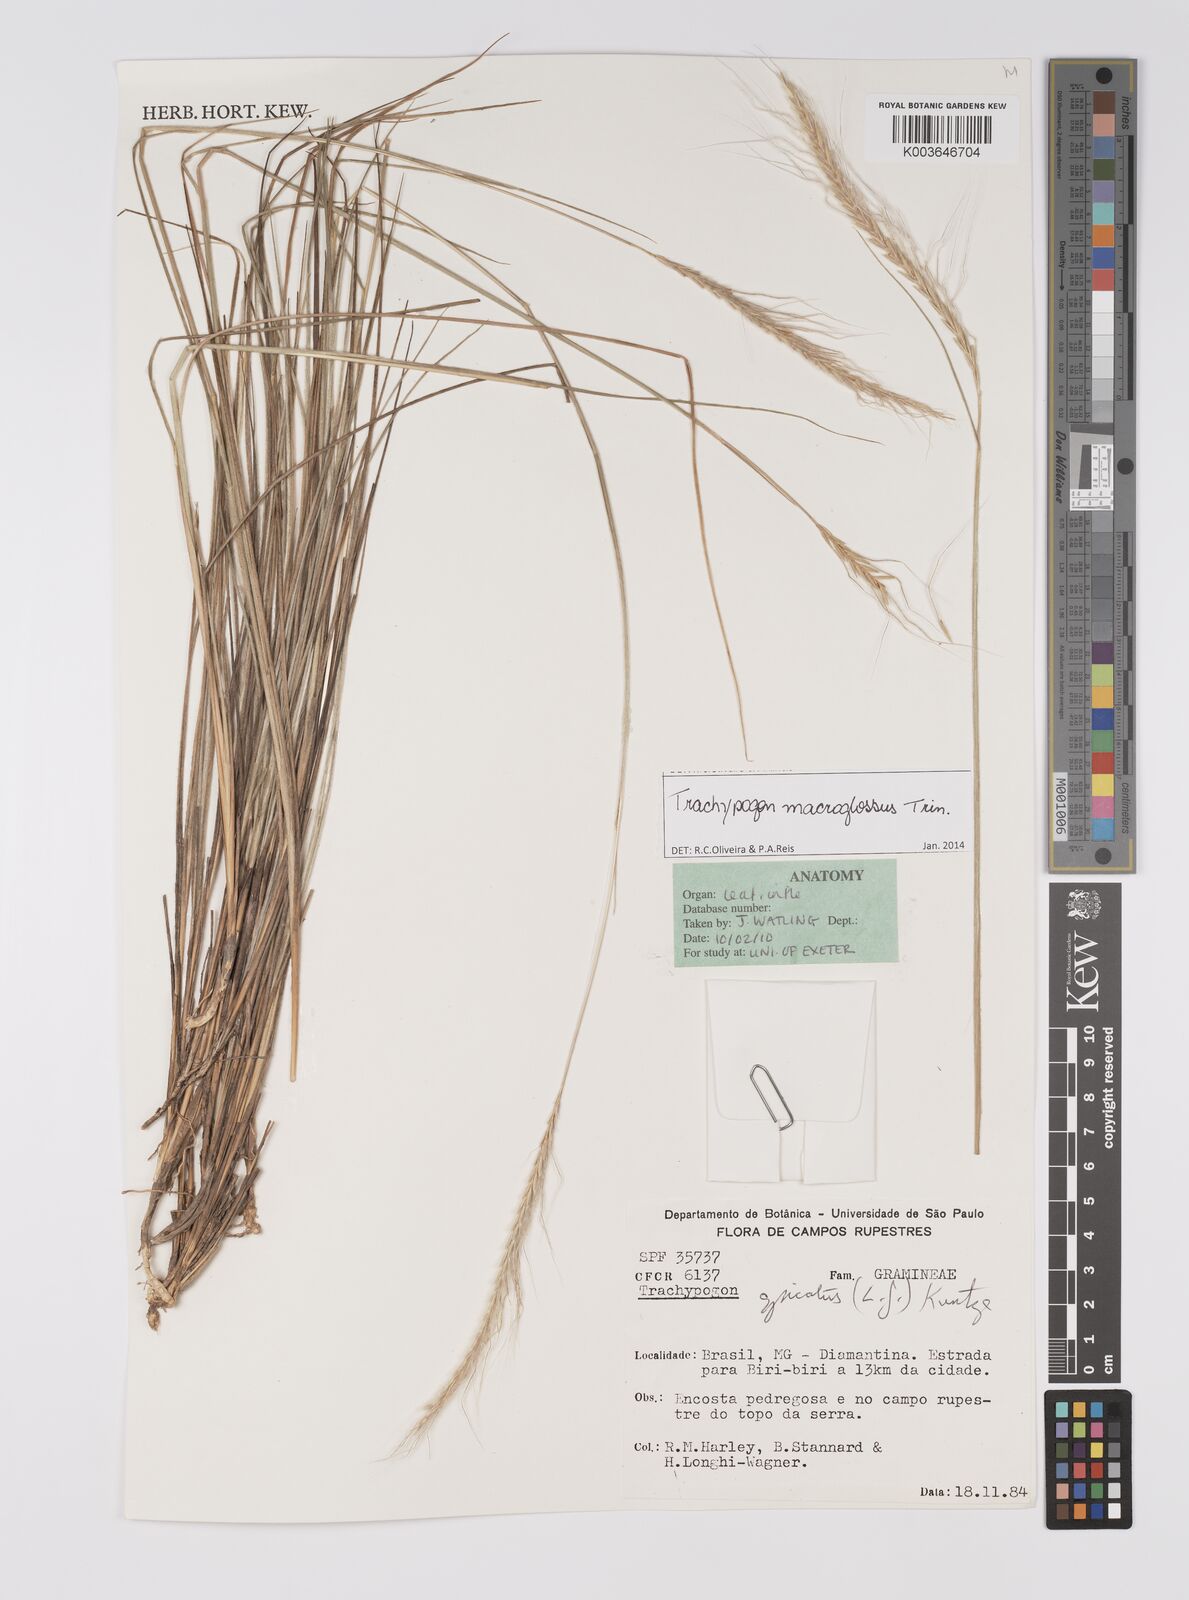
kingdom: Plantae
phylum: Tracheophyta
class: Liliopsida
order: Poales
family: Poaceae
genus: Trachypogon
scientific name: Trachypogon macroglossus
